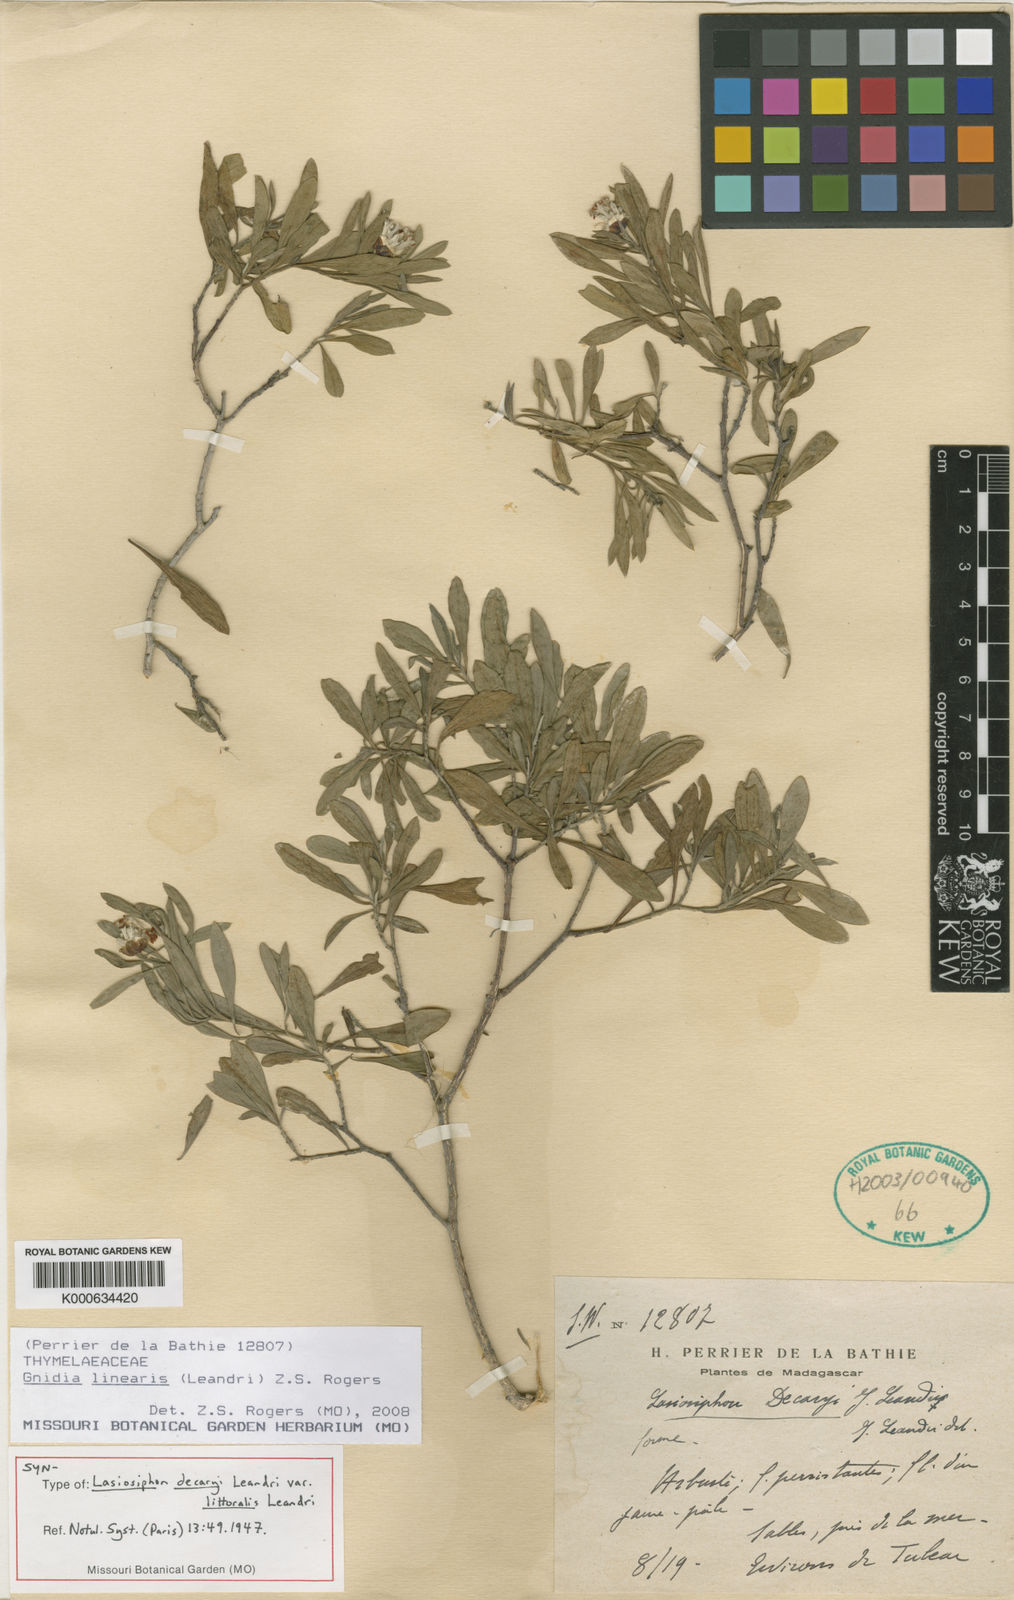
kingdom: Plantae
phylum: Tracheophyta
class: Magnoliopsida
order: Malvales
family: Thymelaeaceae
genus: Gnidia
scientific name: Gnidia linearis
